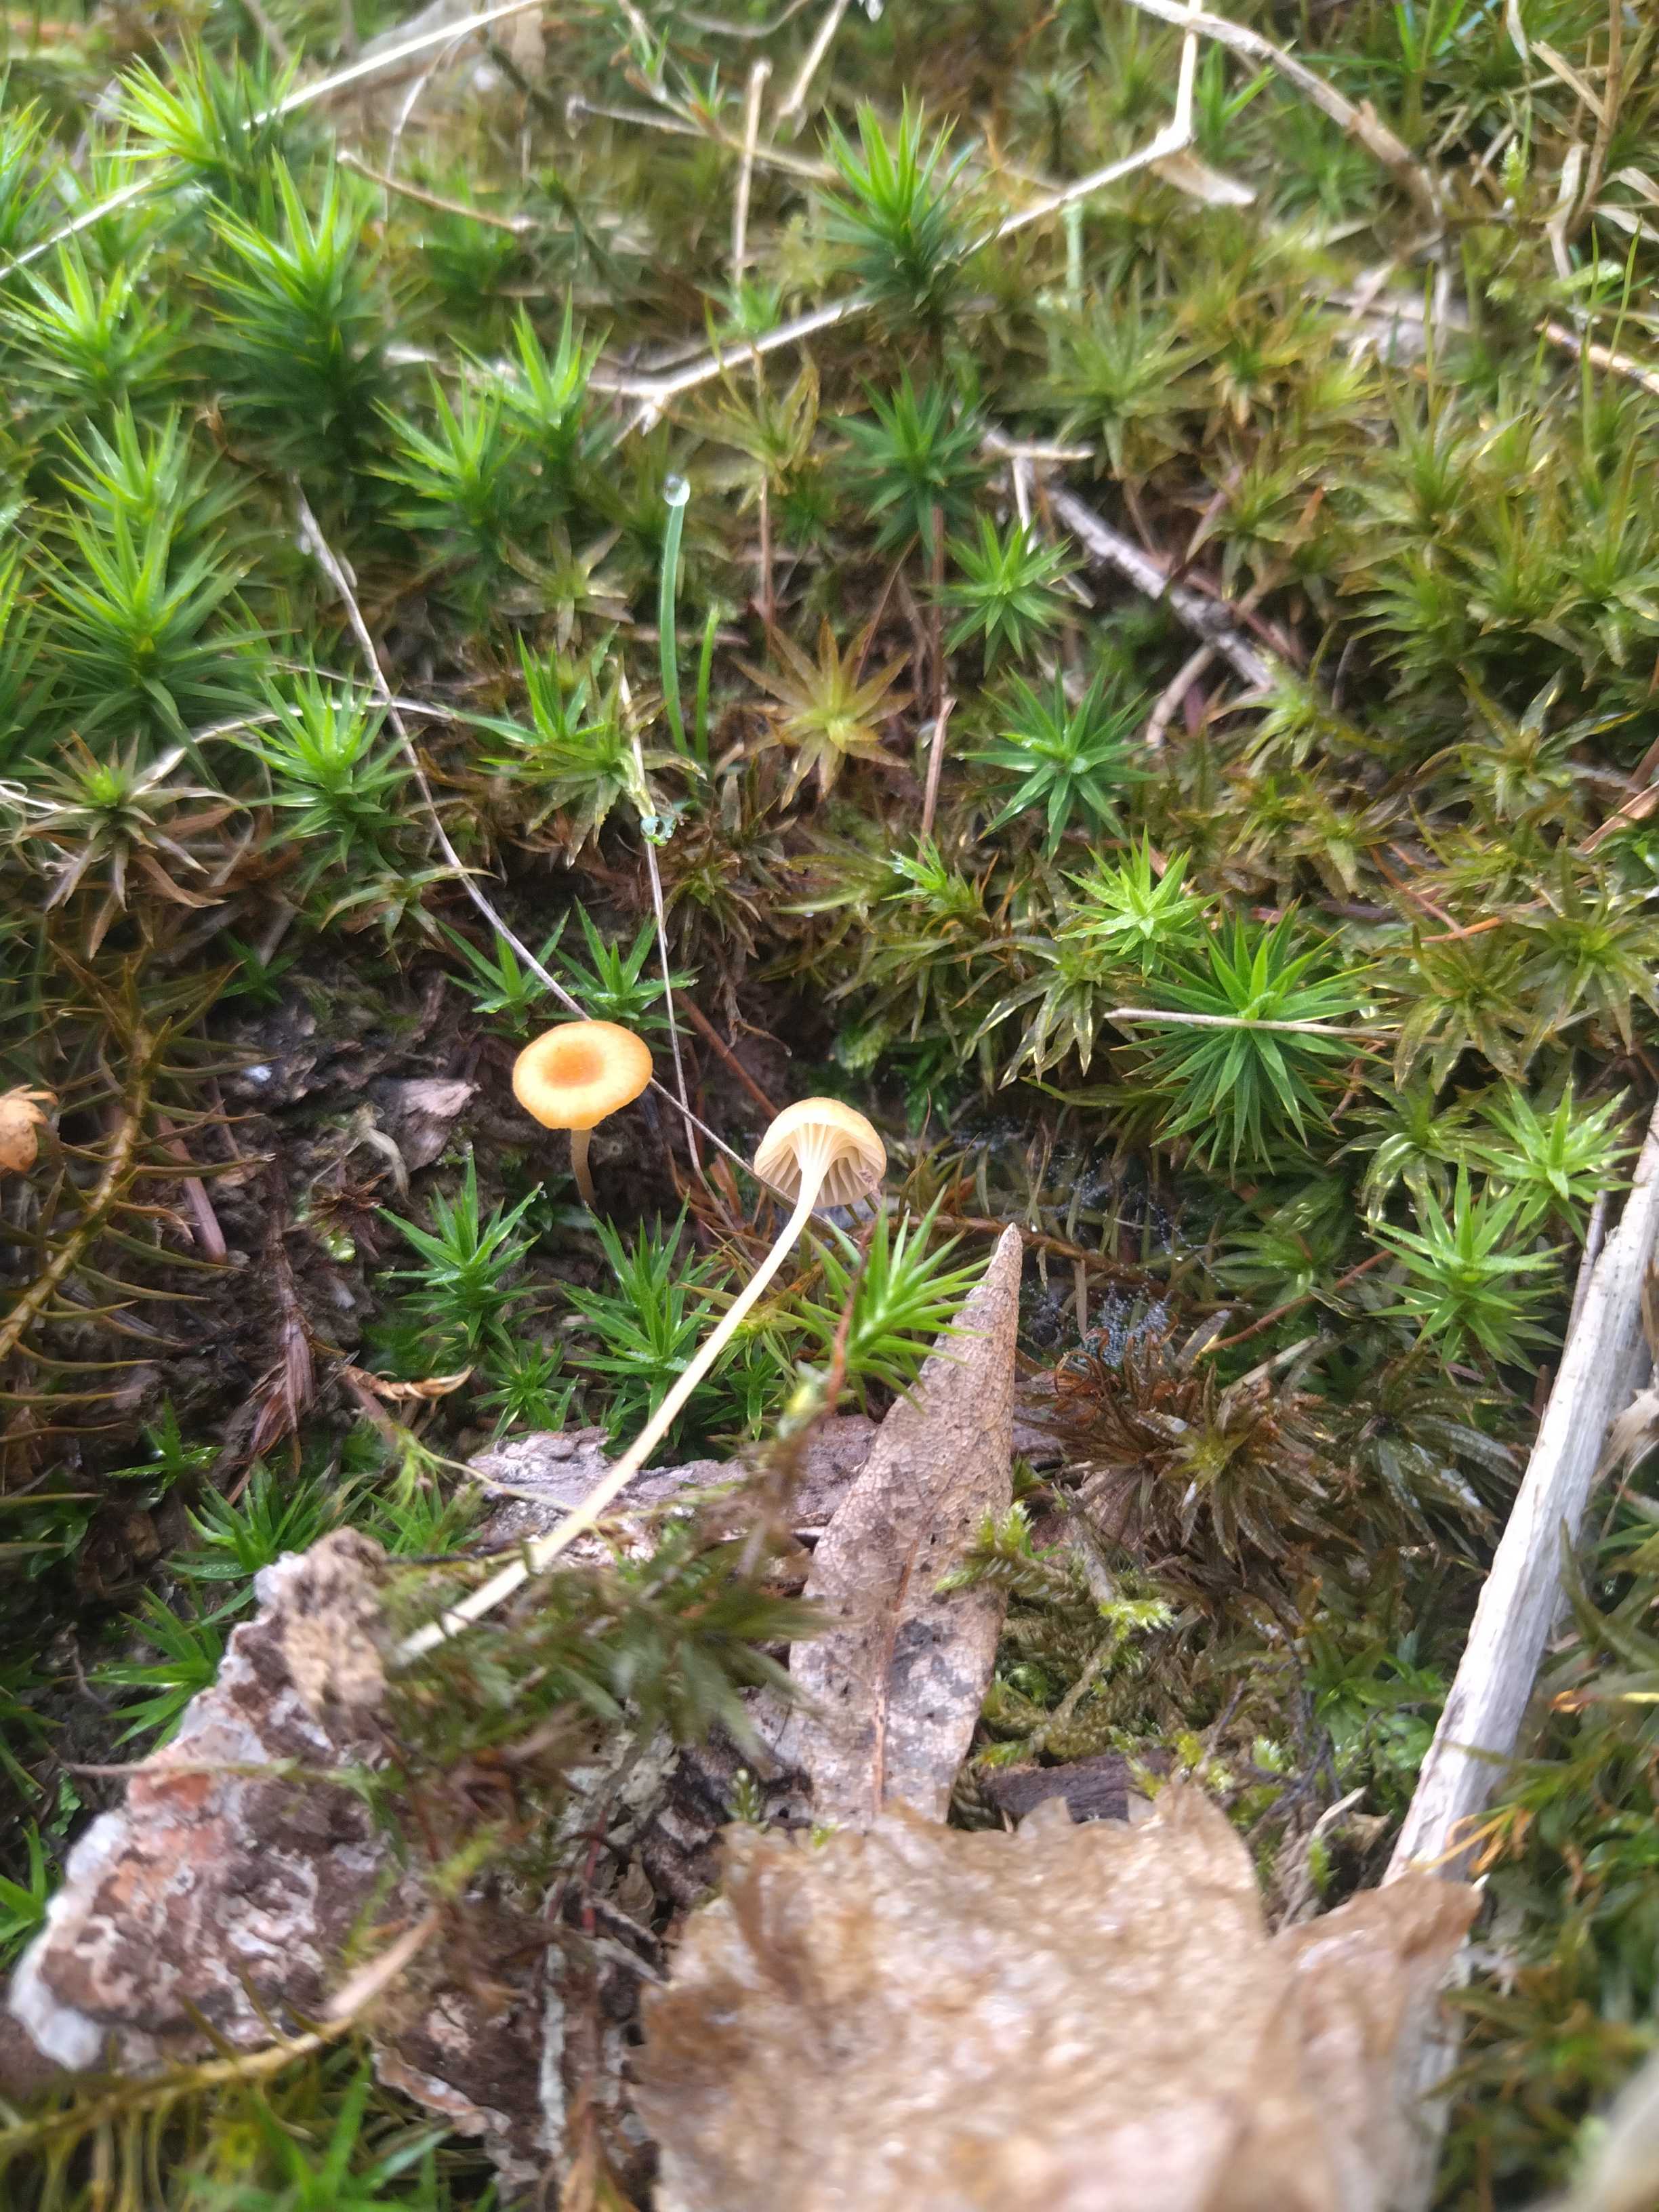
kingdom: Fungi
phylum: Basidiomycota
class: Agaricomycetes
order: Hymenochaetales
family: Rickenellaceae
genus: Rickenella
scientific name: Rickenella fibula
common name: orange mosnavlehat
